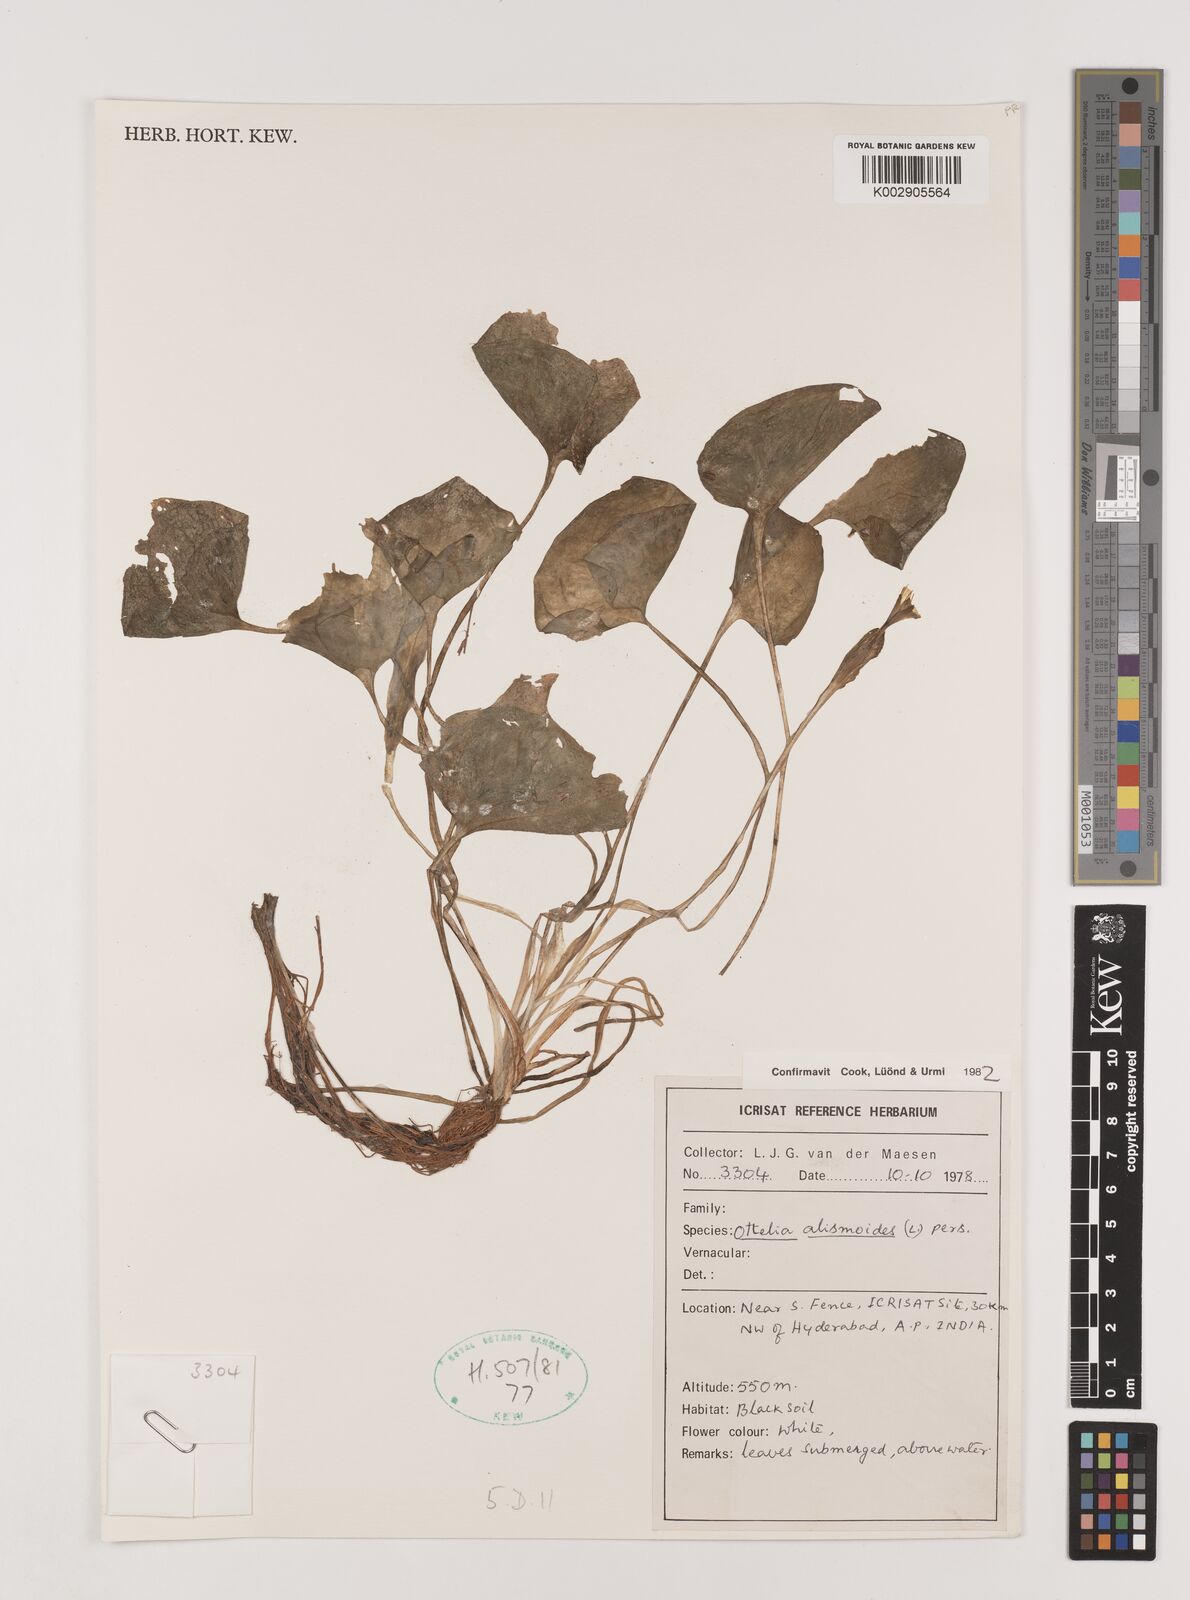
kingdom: Plantae
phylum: Tracheophyta
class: Liliopsida
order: Alismatales
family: Hydrocharitaceae
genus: Ottelia
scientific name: Ottelia alismoides
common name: Duck-lettuce
